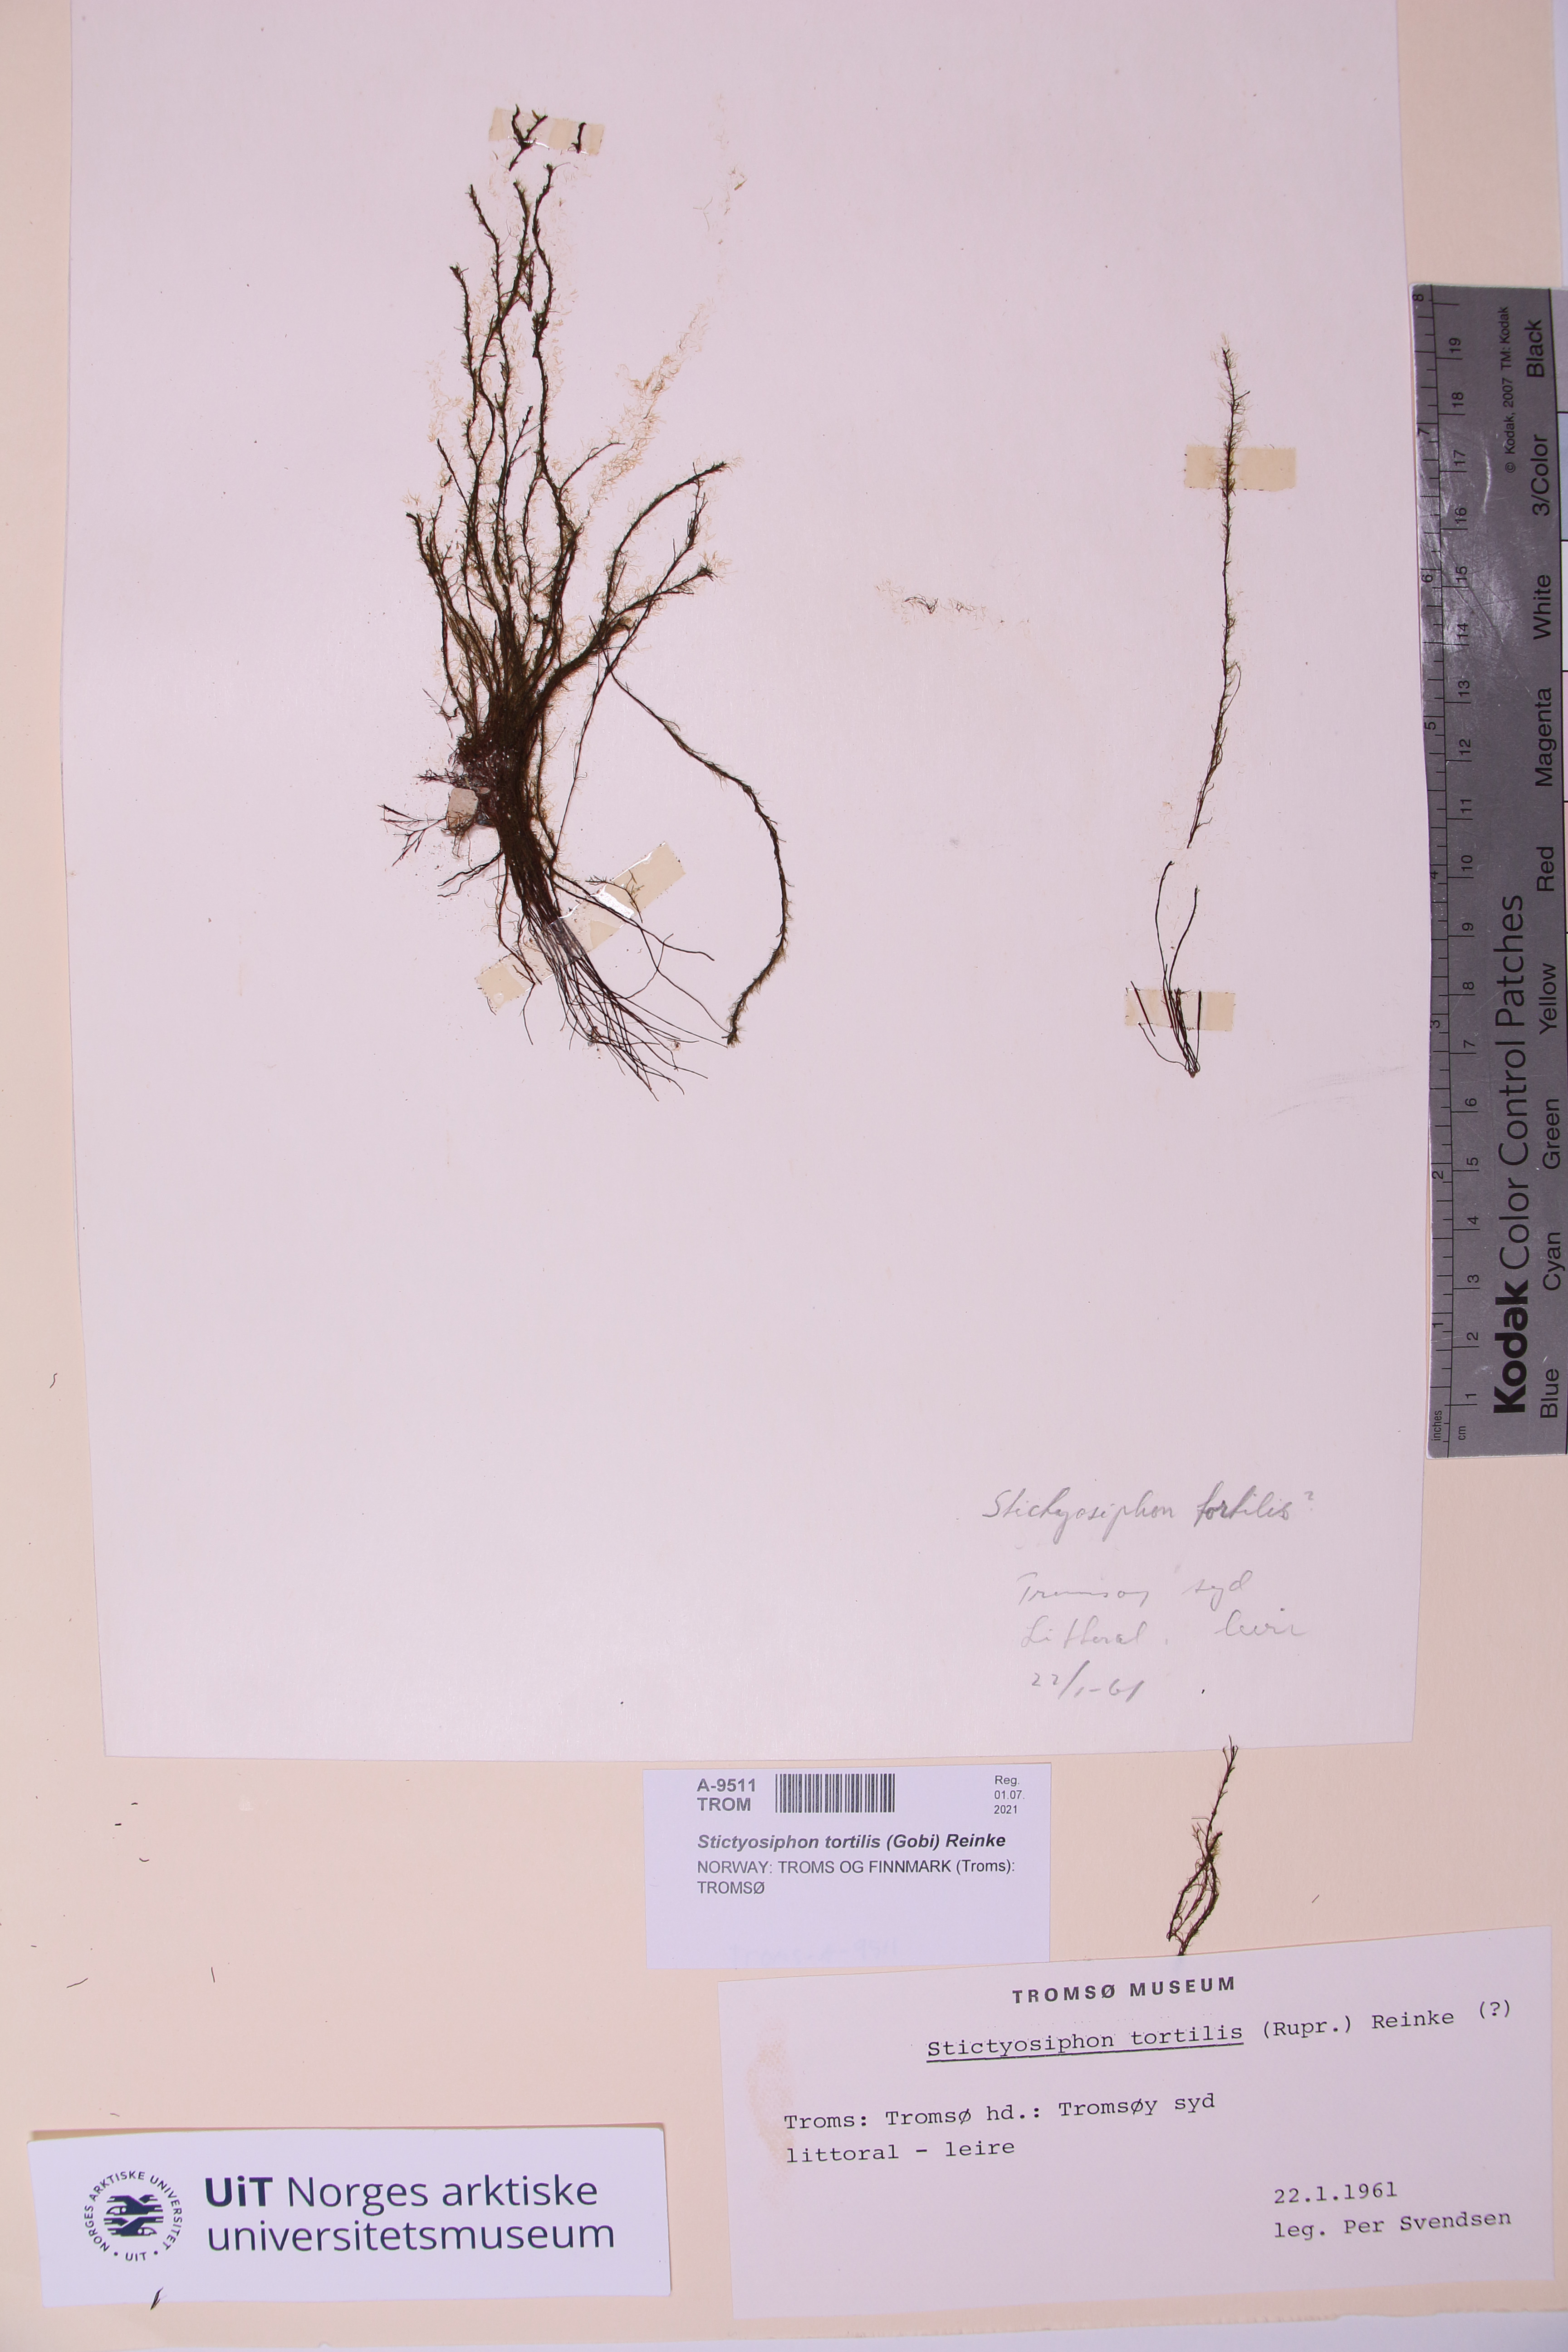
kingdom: Chromista
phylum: Ochrophyta
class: Phaeophyceae
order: Ectocarpales
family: Chordariaceae
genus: Stictyosiphon
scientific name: Stictyosiphon tortilis
